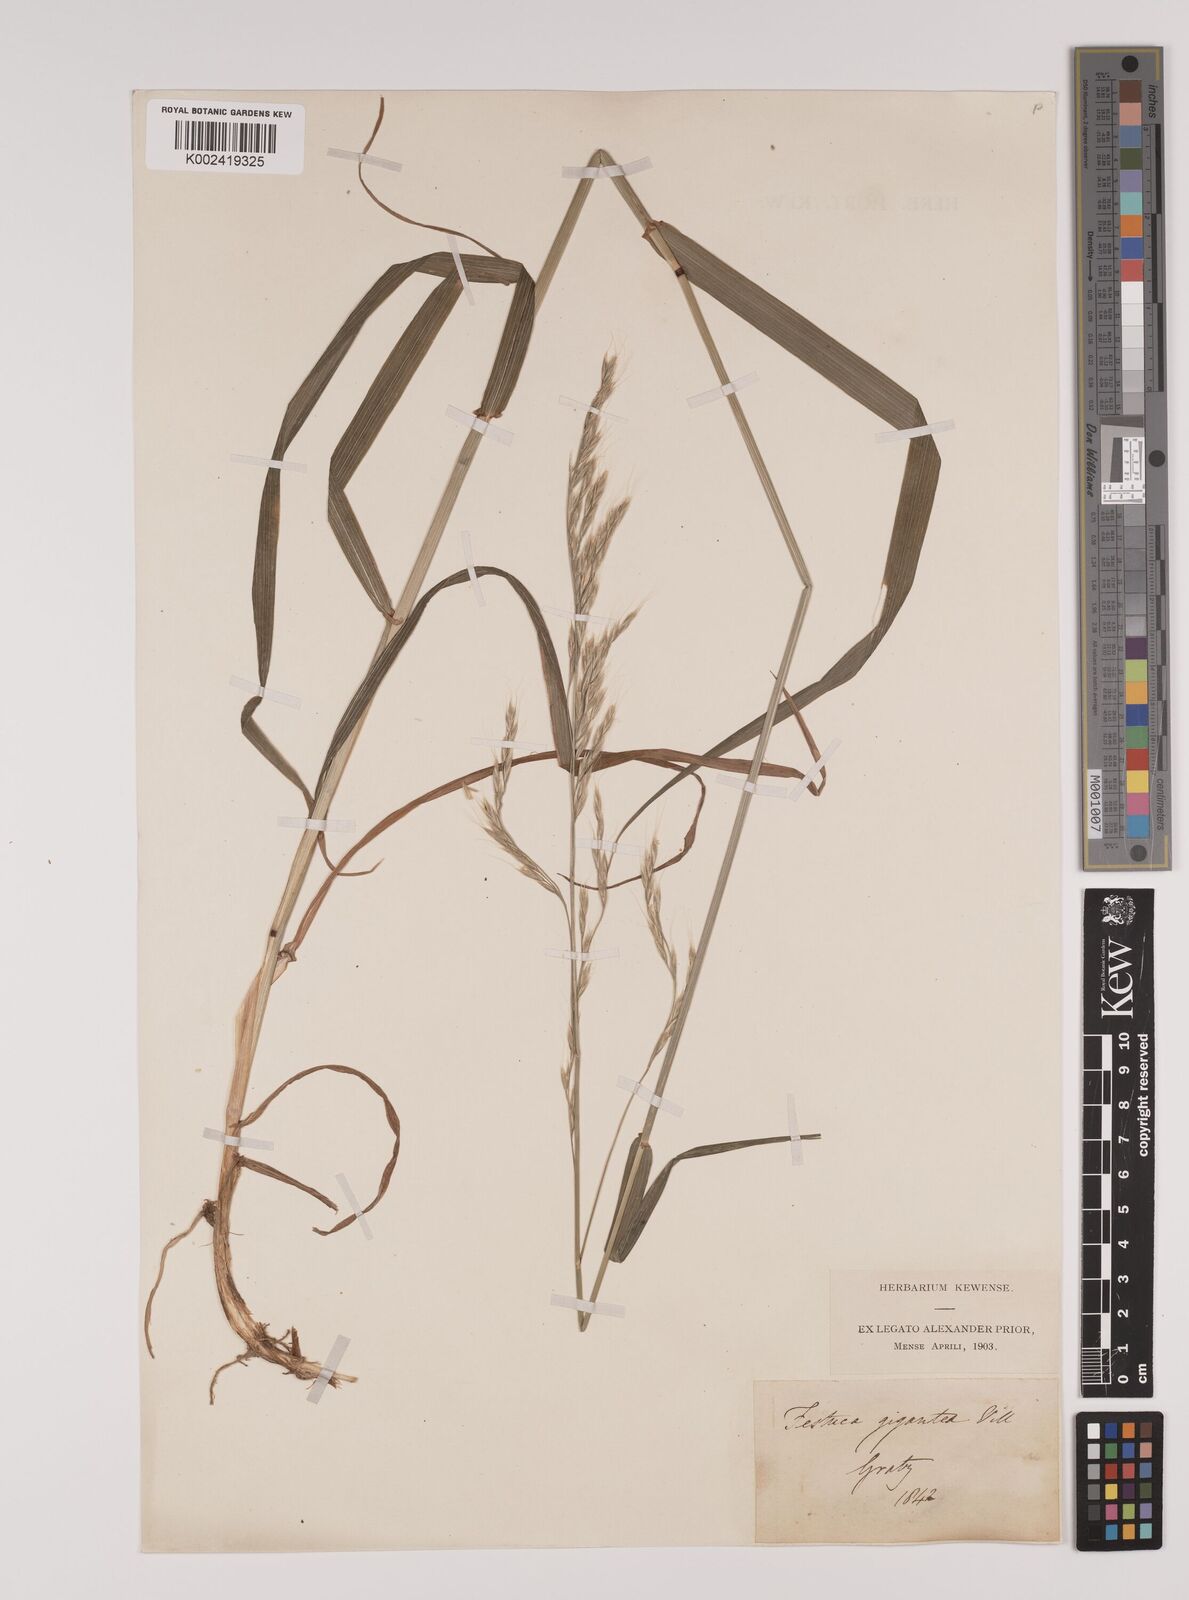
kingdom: Plantae
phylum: Tracheophyta
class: Liliopsida
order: Poales
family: Poaceae
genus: Lolium
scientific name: Lolium giganteum
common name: Giant fescue
